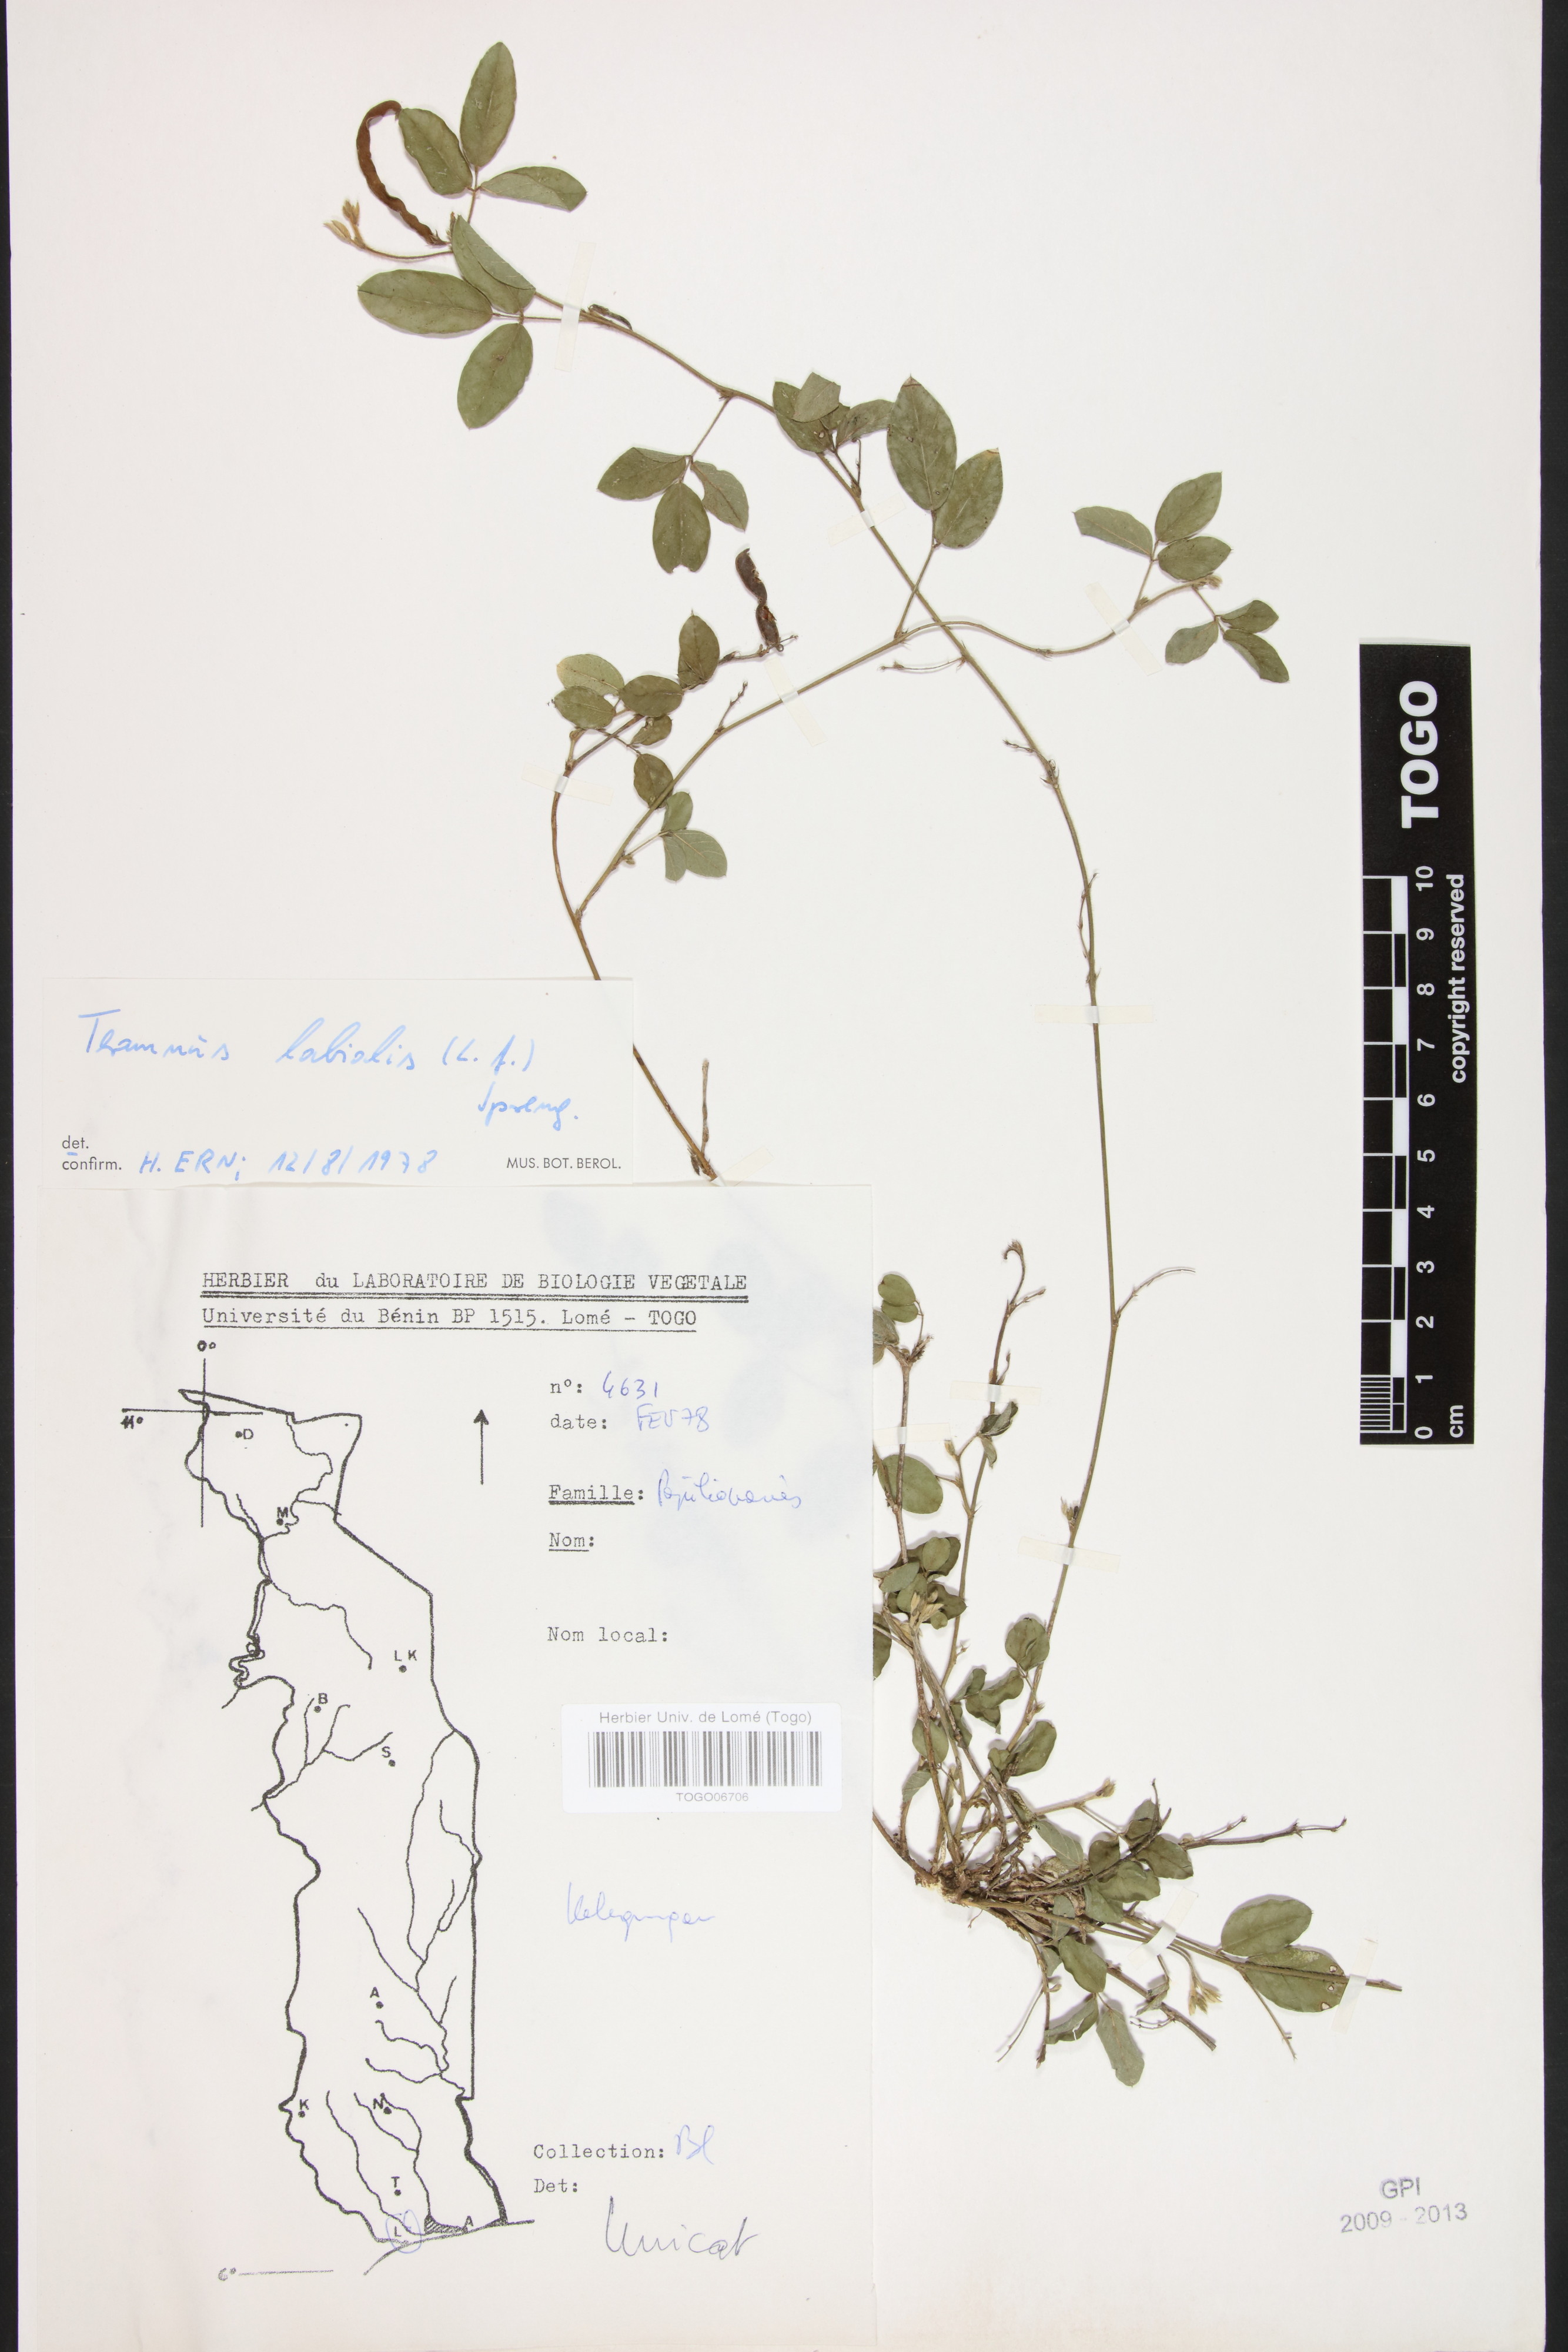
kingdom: Plantae
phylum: Tracheophyta
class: Magnoliopsida
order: Fabales
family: Fabaceae
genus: Teramnus
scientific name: Teramnus labialis
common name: Blue wiss
